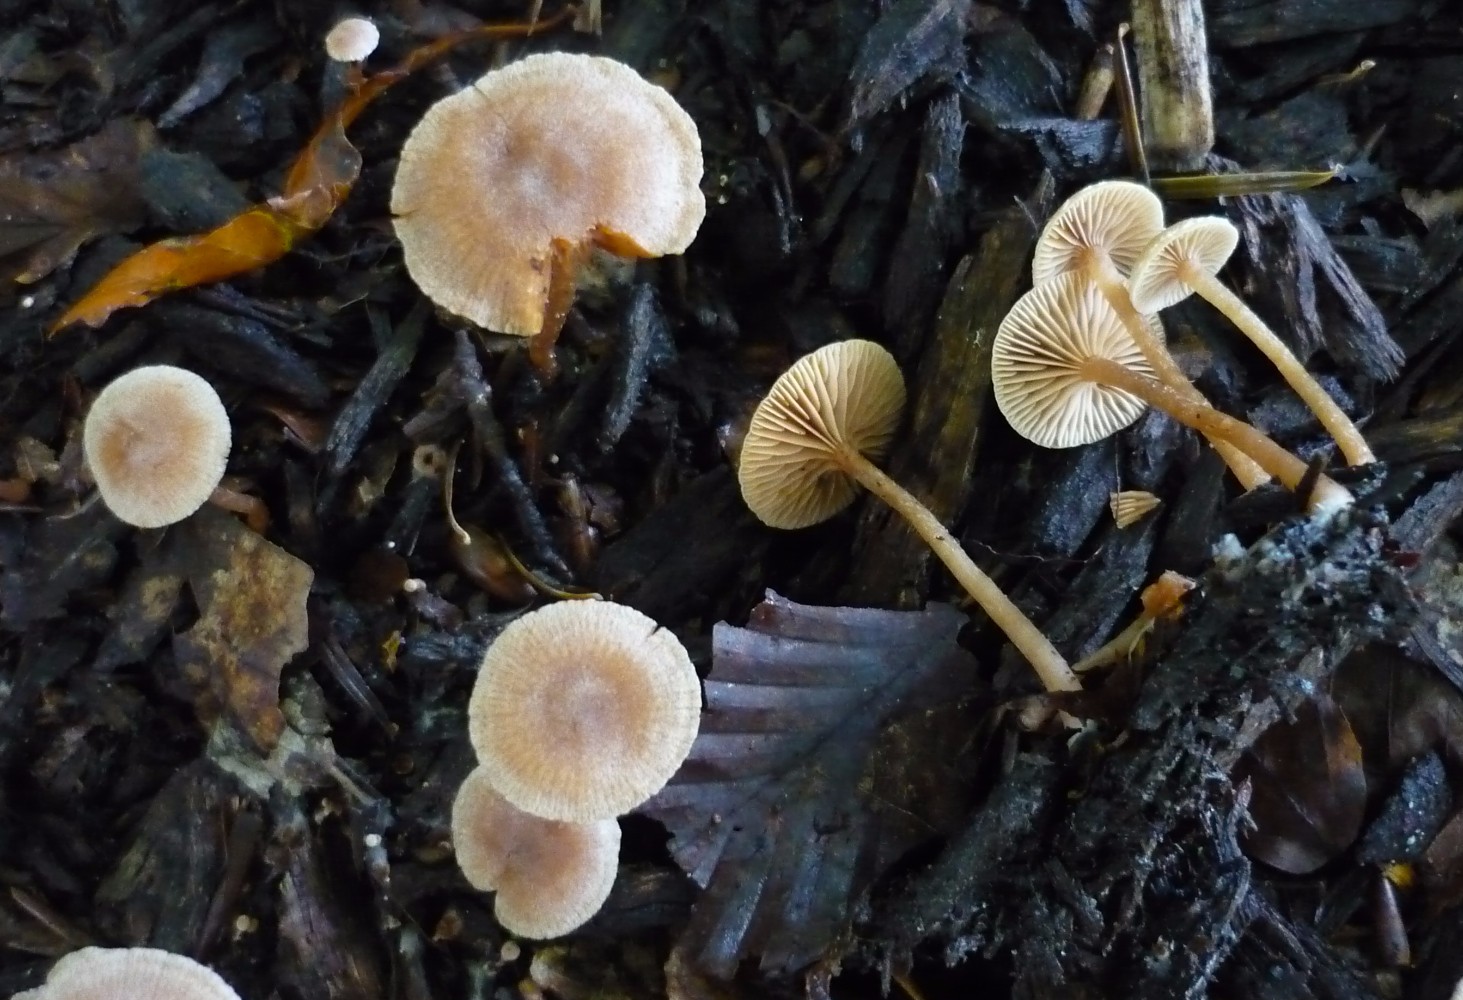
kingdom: Fungi
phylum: Basidiomycota
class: Agaricomycetes
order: Agaricales
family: Tubariaceae
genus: Tubaria
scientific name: Tubaria conspersa
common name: bleg fnughat
